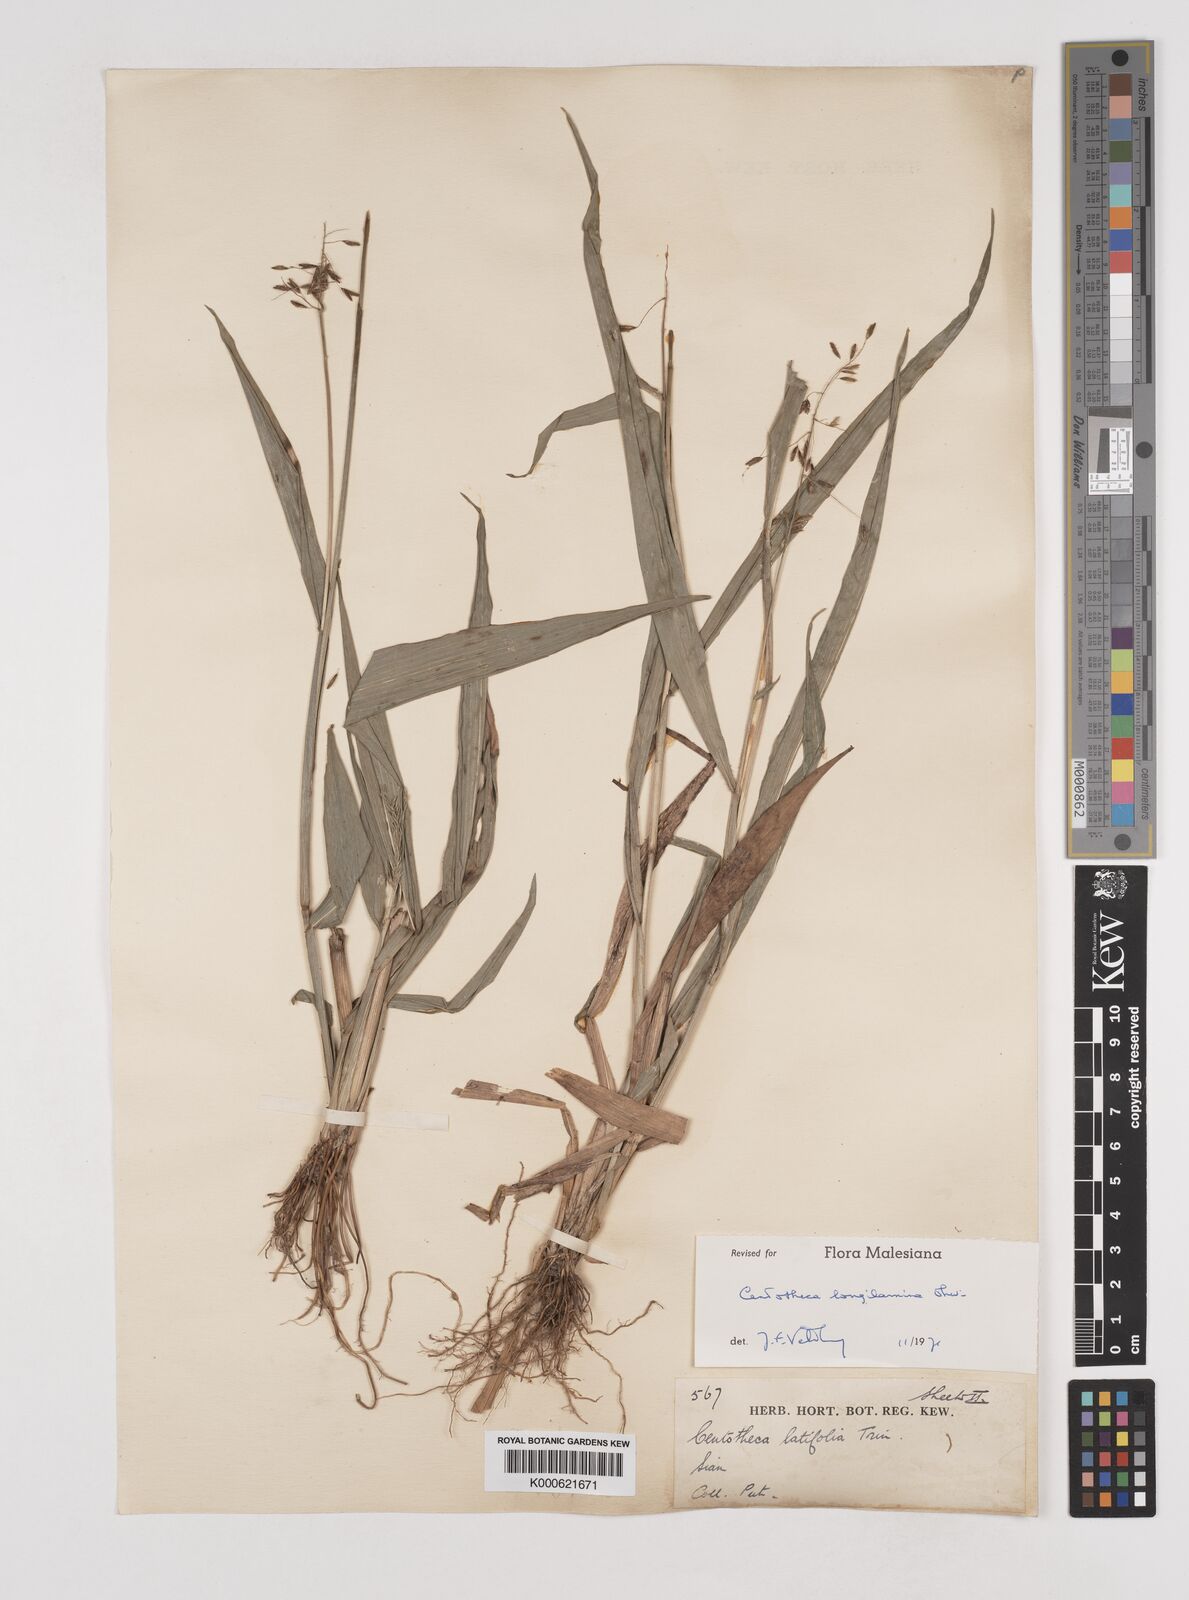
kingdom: Plantae
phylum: Tracheophyta
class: Liliopsida
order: Poales
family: Poaceae
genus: Centotheca
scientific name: Centotheca lappacea
